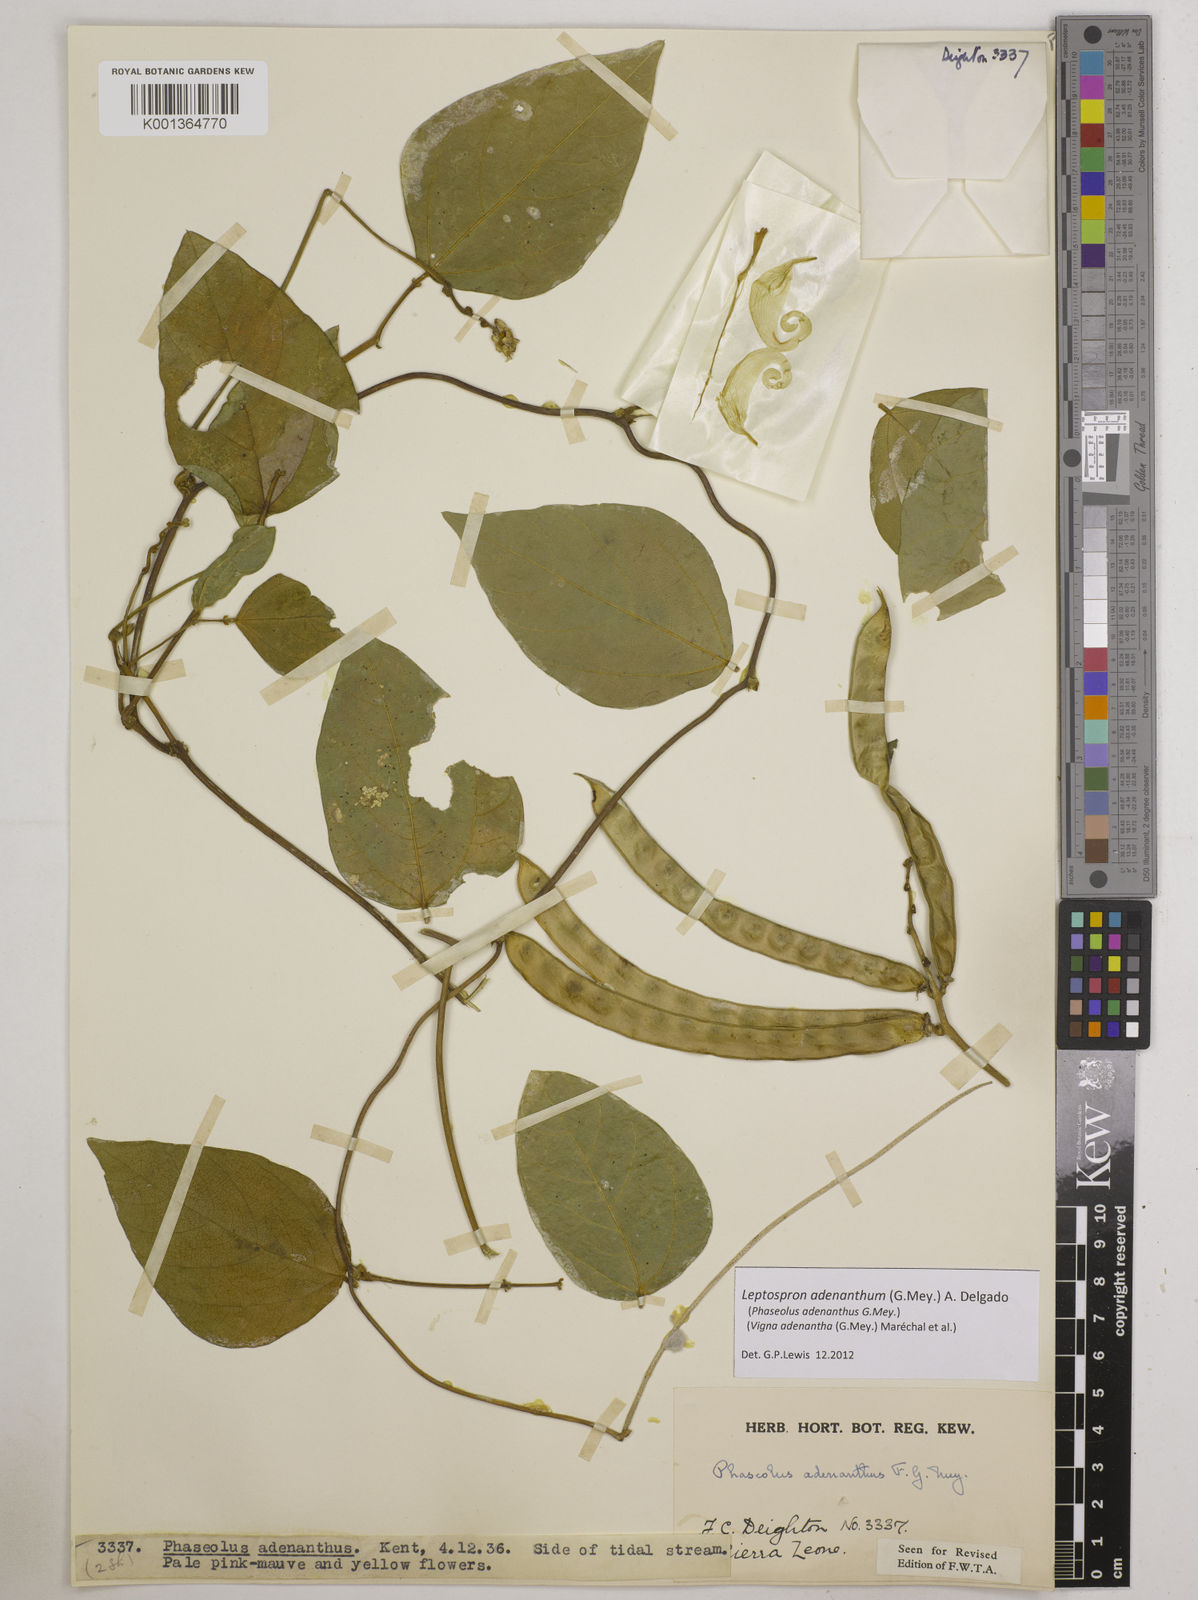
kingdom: Plantae
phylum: Tracheophyta
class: Magnoliopsida
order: Fabales
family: Fabaceae
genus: Leptospron
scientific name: Leptospron adenanthum
